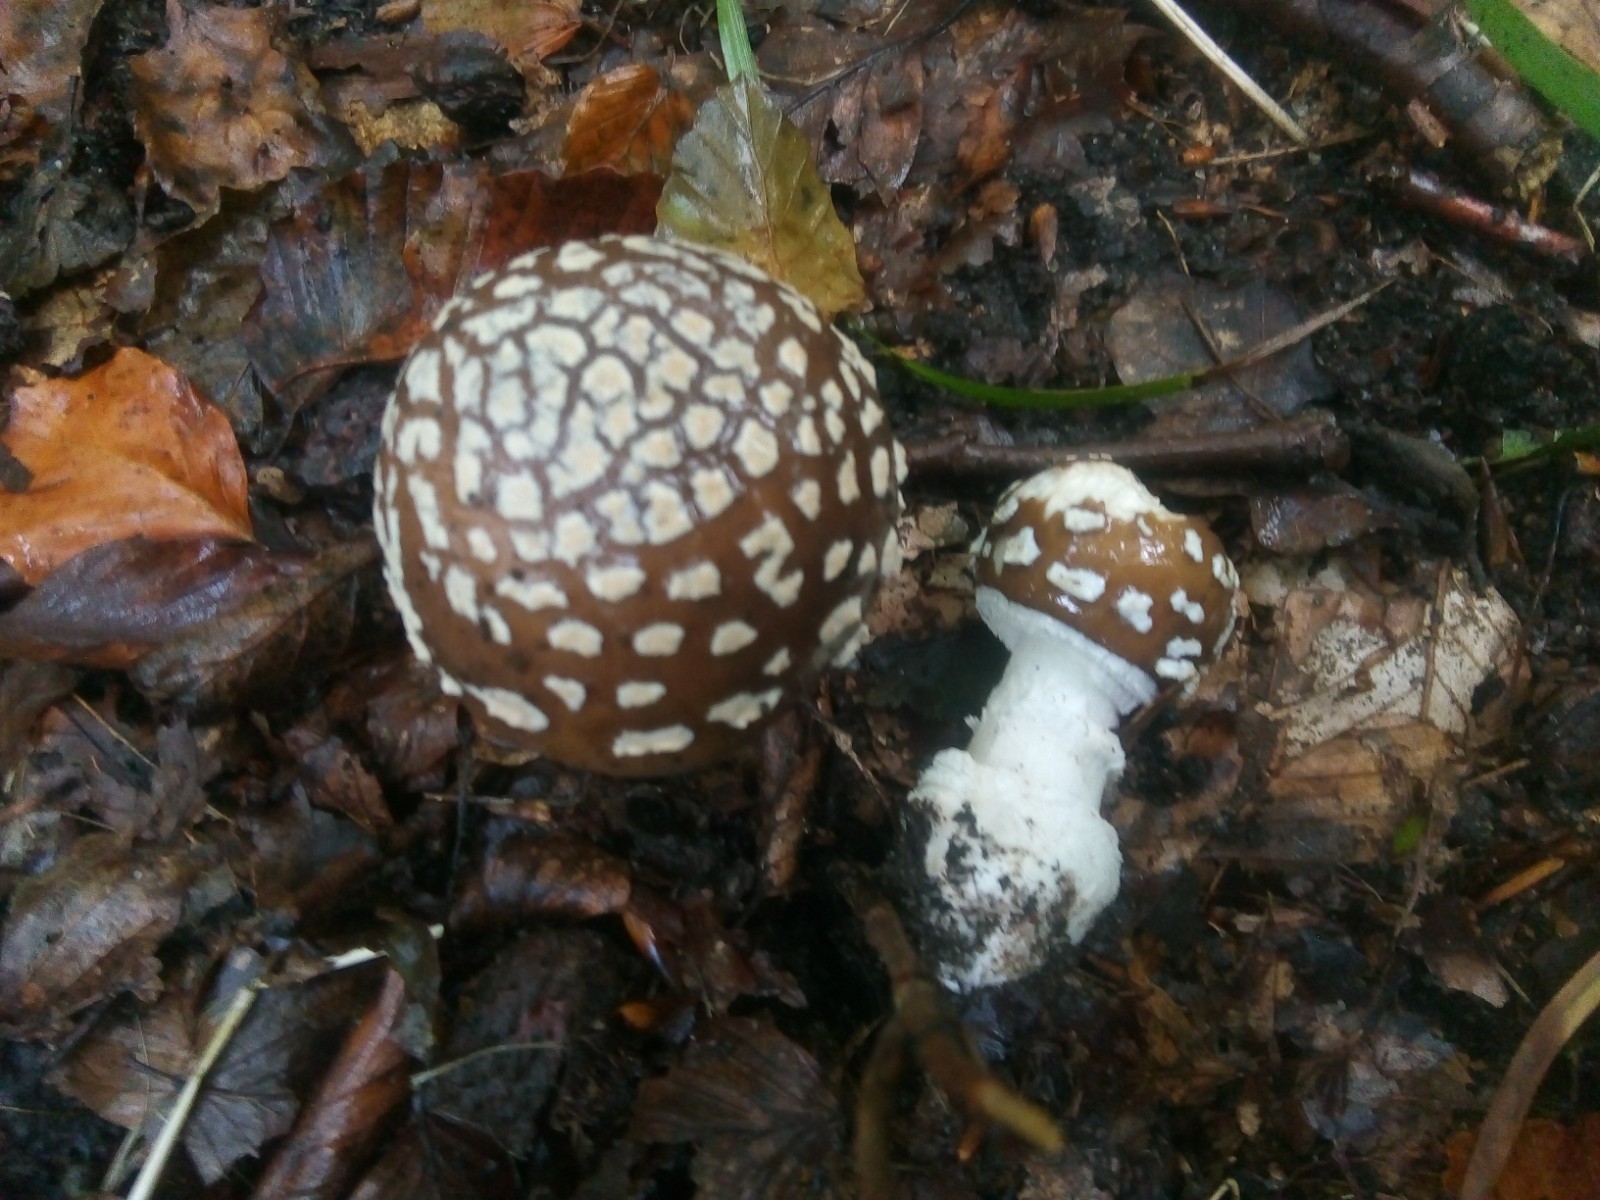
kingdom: Fungi
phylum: Basidiomycota
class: Agaricomycetes
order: Agaricales
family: Amanitaceae
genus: Amanita
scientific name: Amanita pantherina
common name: panter-fluesvamp
